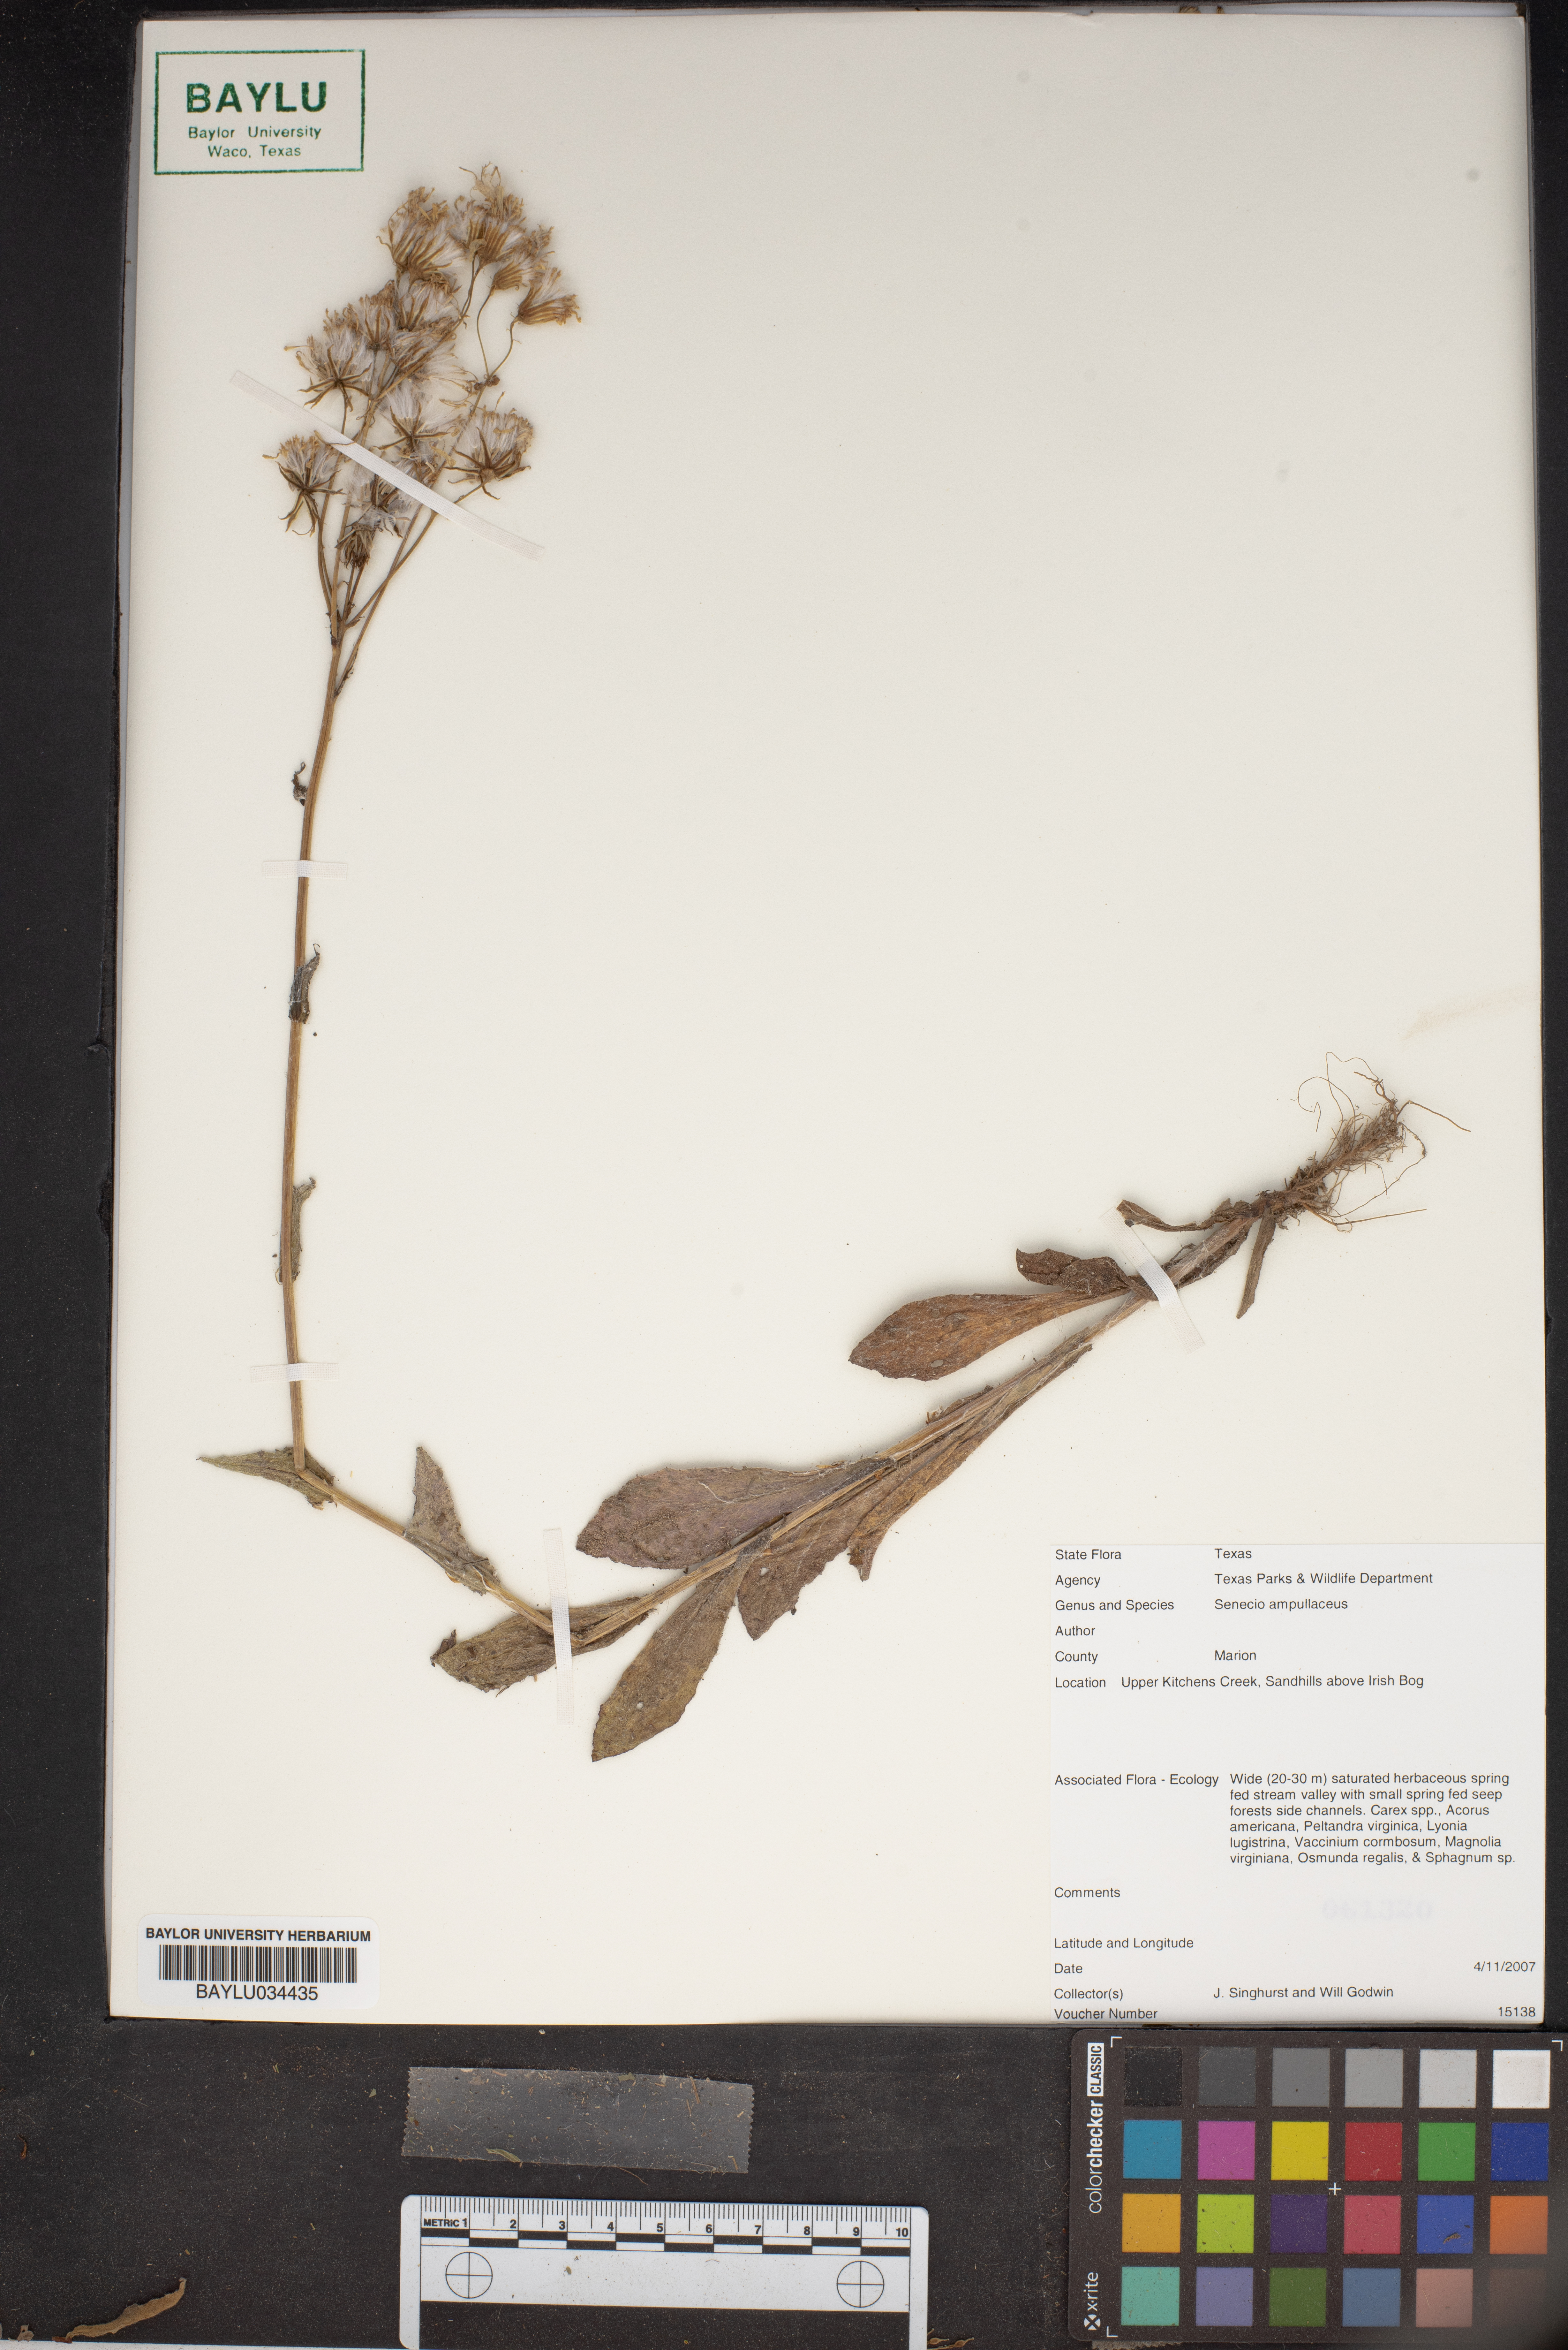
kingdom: Plantae
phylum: Tracheophyta
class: Magnoliopsida
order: Asterales
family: Asteraceae
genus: Senecio
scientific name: Senecio ampullaceus
